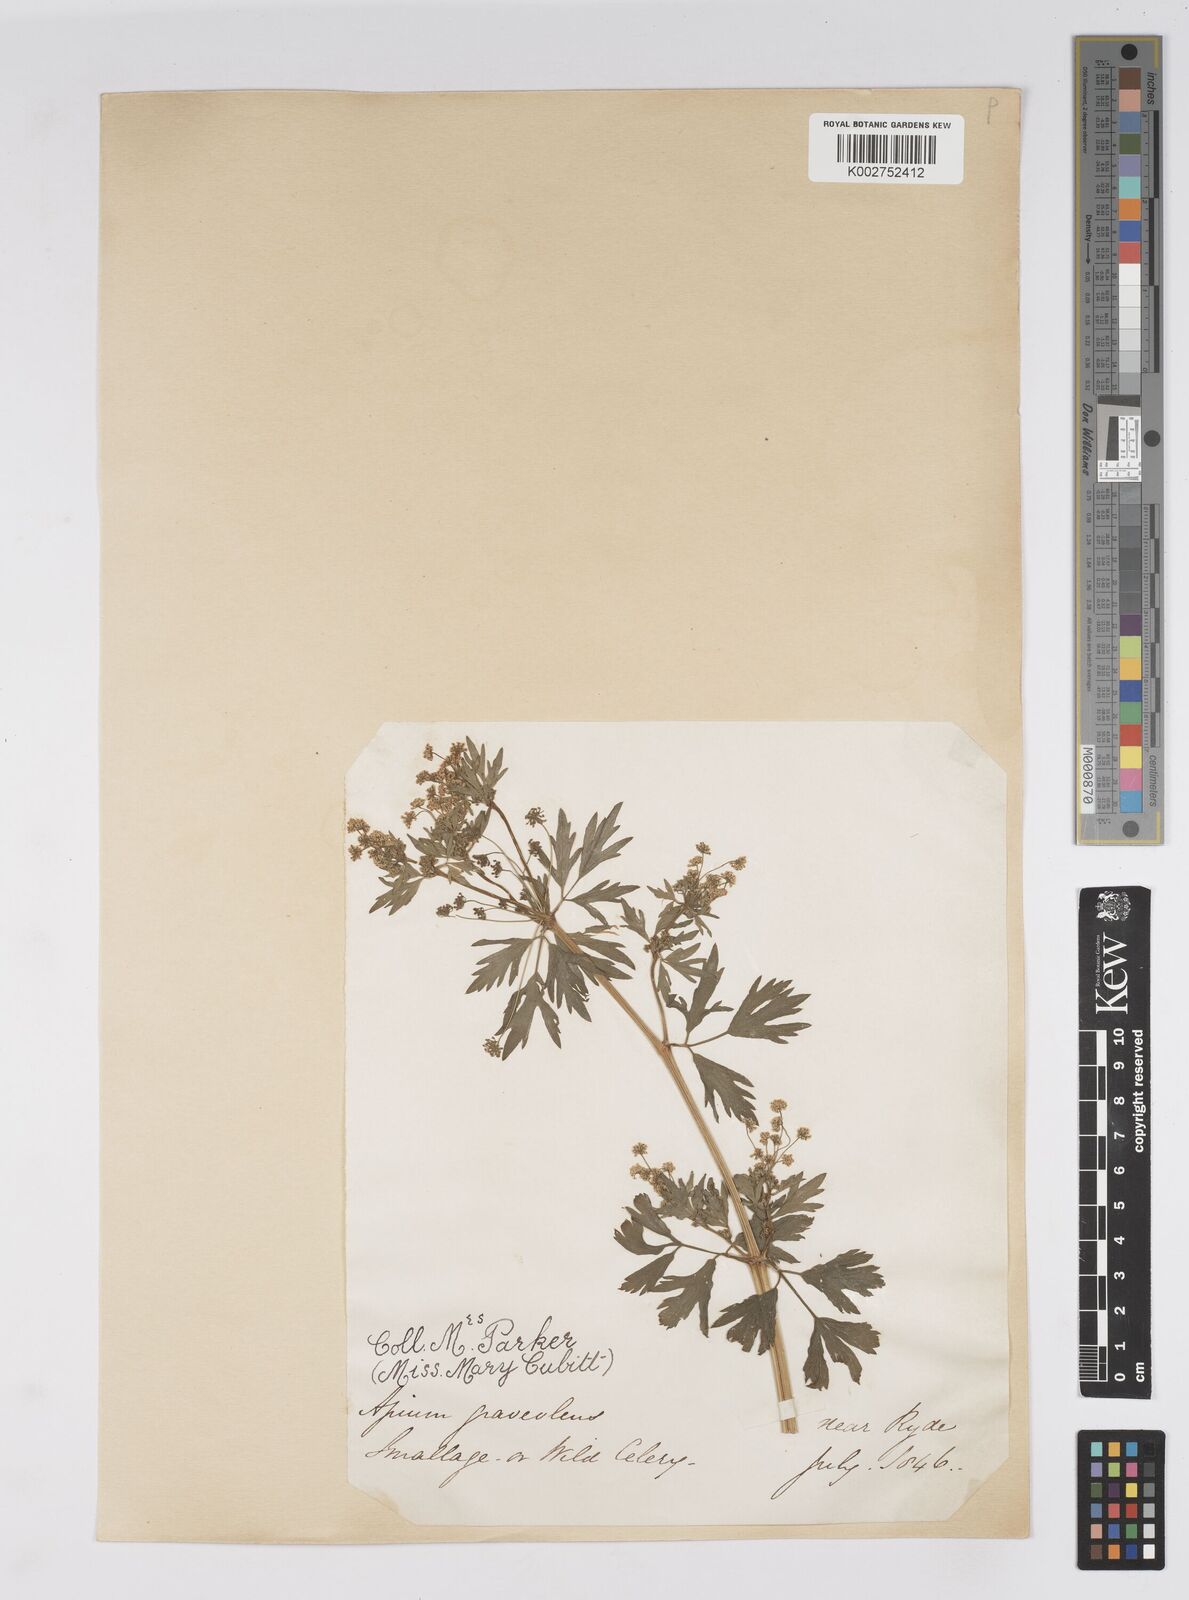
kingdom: Plantae
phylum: Tracheophyta
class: Magnoliopsida
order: Apiales
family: Apiaceae
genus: Apium
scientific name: Apium graveolens
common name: Wild celery
